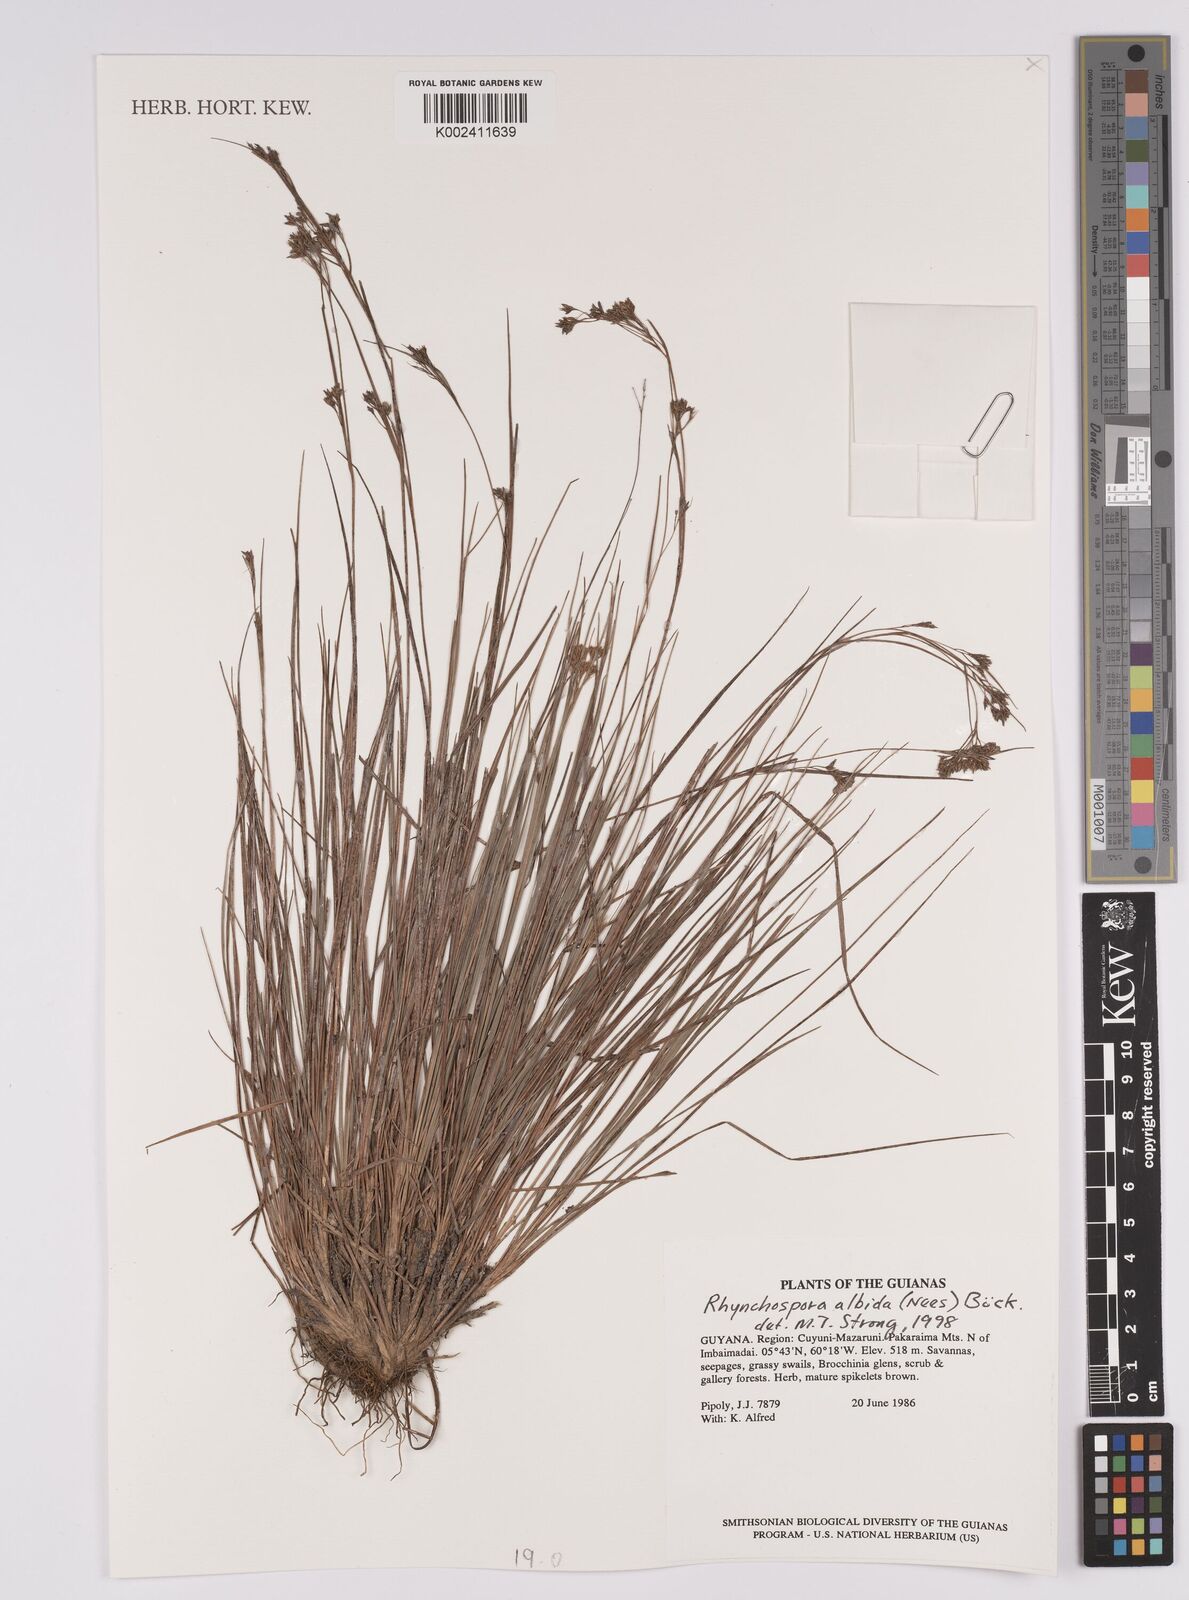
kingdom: Plantae
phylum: Tracheophyta
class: Liliopsida
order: Poales
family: Cyperaceae
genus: Rhynchospora
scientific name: Rhynchospora albida
